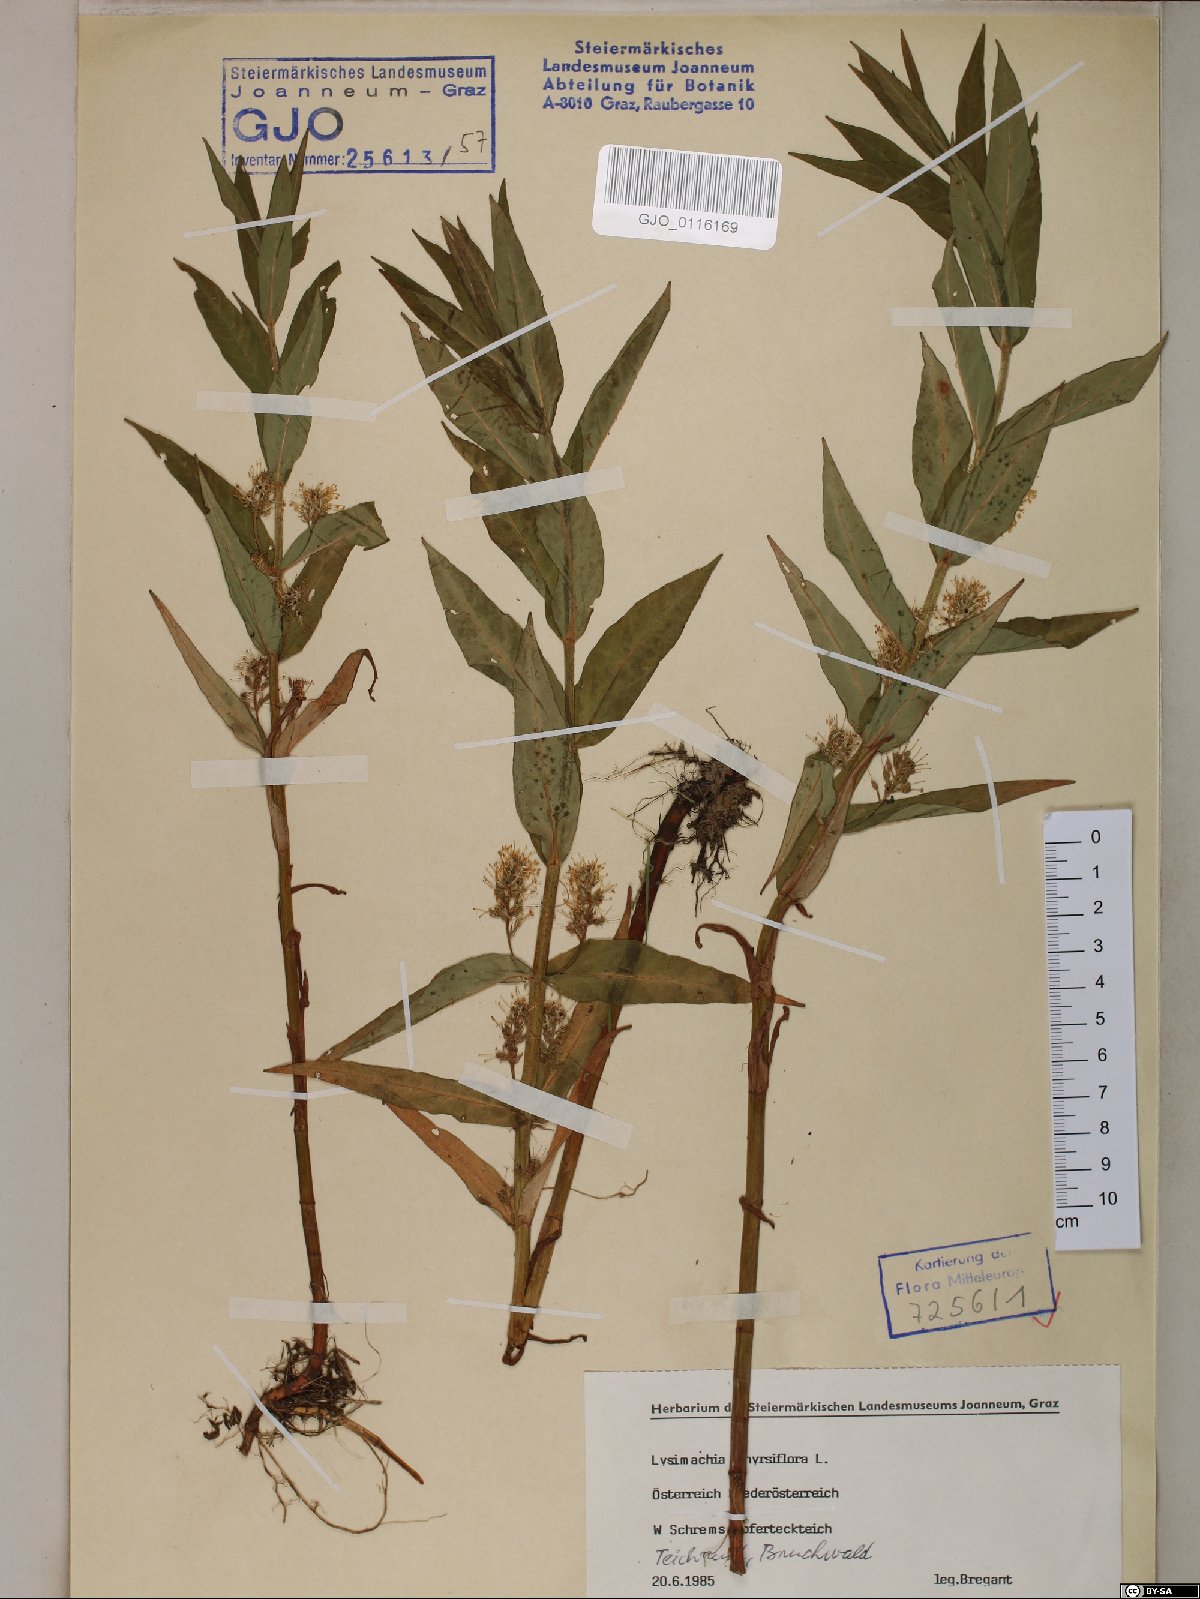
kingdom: Plantae
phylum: Tracheophyta
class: Magnoliopsida
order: Ericales
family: Primulaceae
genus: Lysimachia
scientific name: Lysimachia thyrsiflora
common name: Tufted loosestrife
